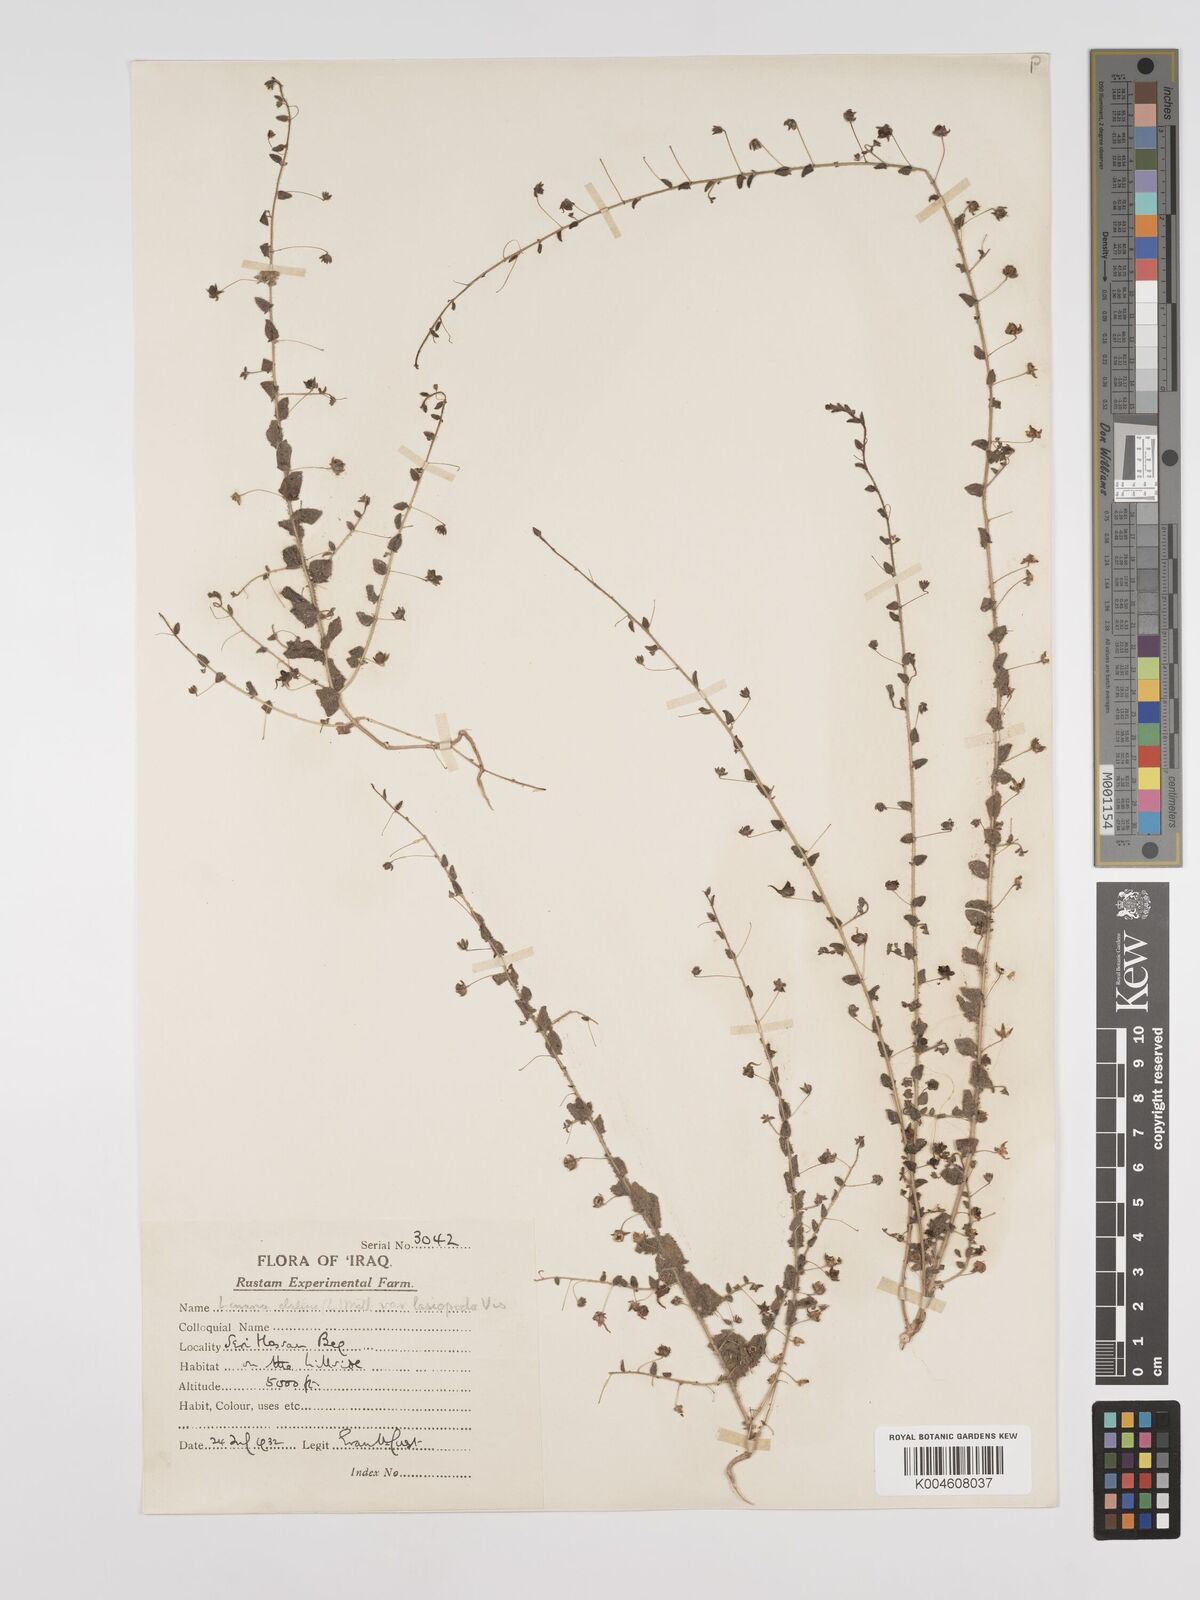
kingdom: Plantae
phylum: Tracheophyta
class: Magnoliopsida
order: Lamiales
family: Plantaginaceae
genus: Kickxia
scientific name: Kickxia elatine
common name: Sharp-leaved fluellen
